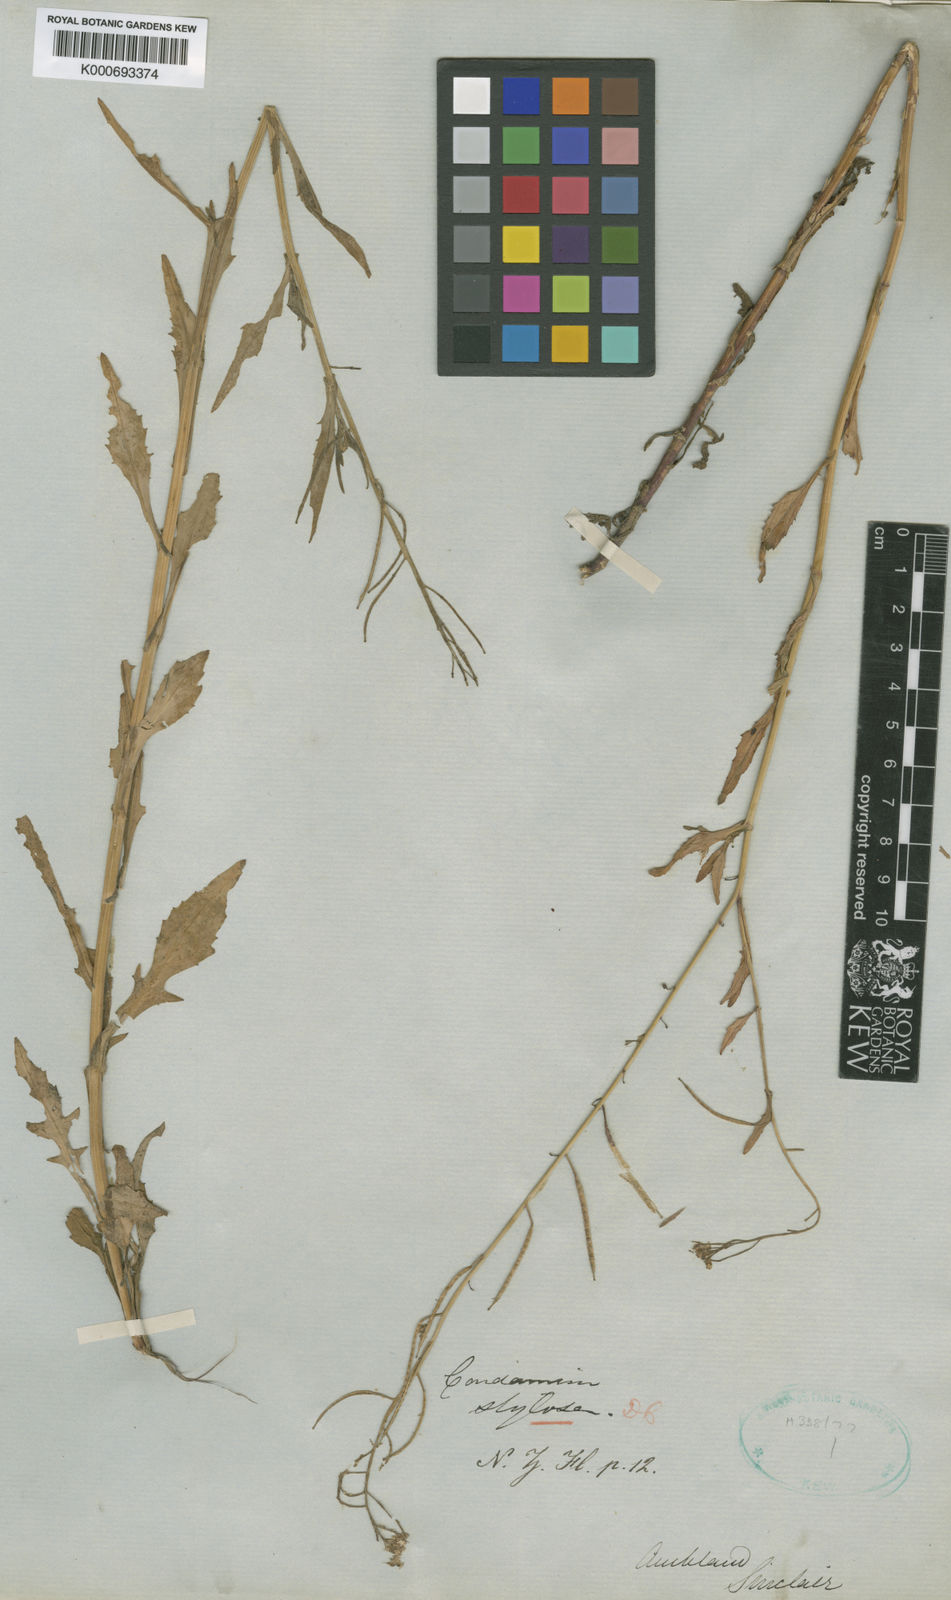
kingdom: Plantae
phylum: Tracheophyta
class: Magnoliopsida
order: Brassicales
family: Brassicaceae
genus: Rorippa
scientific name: Rorippa pyrenaica
